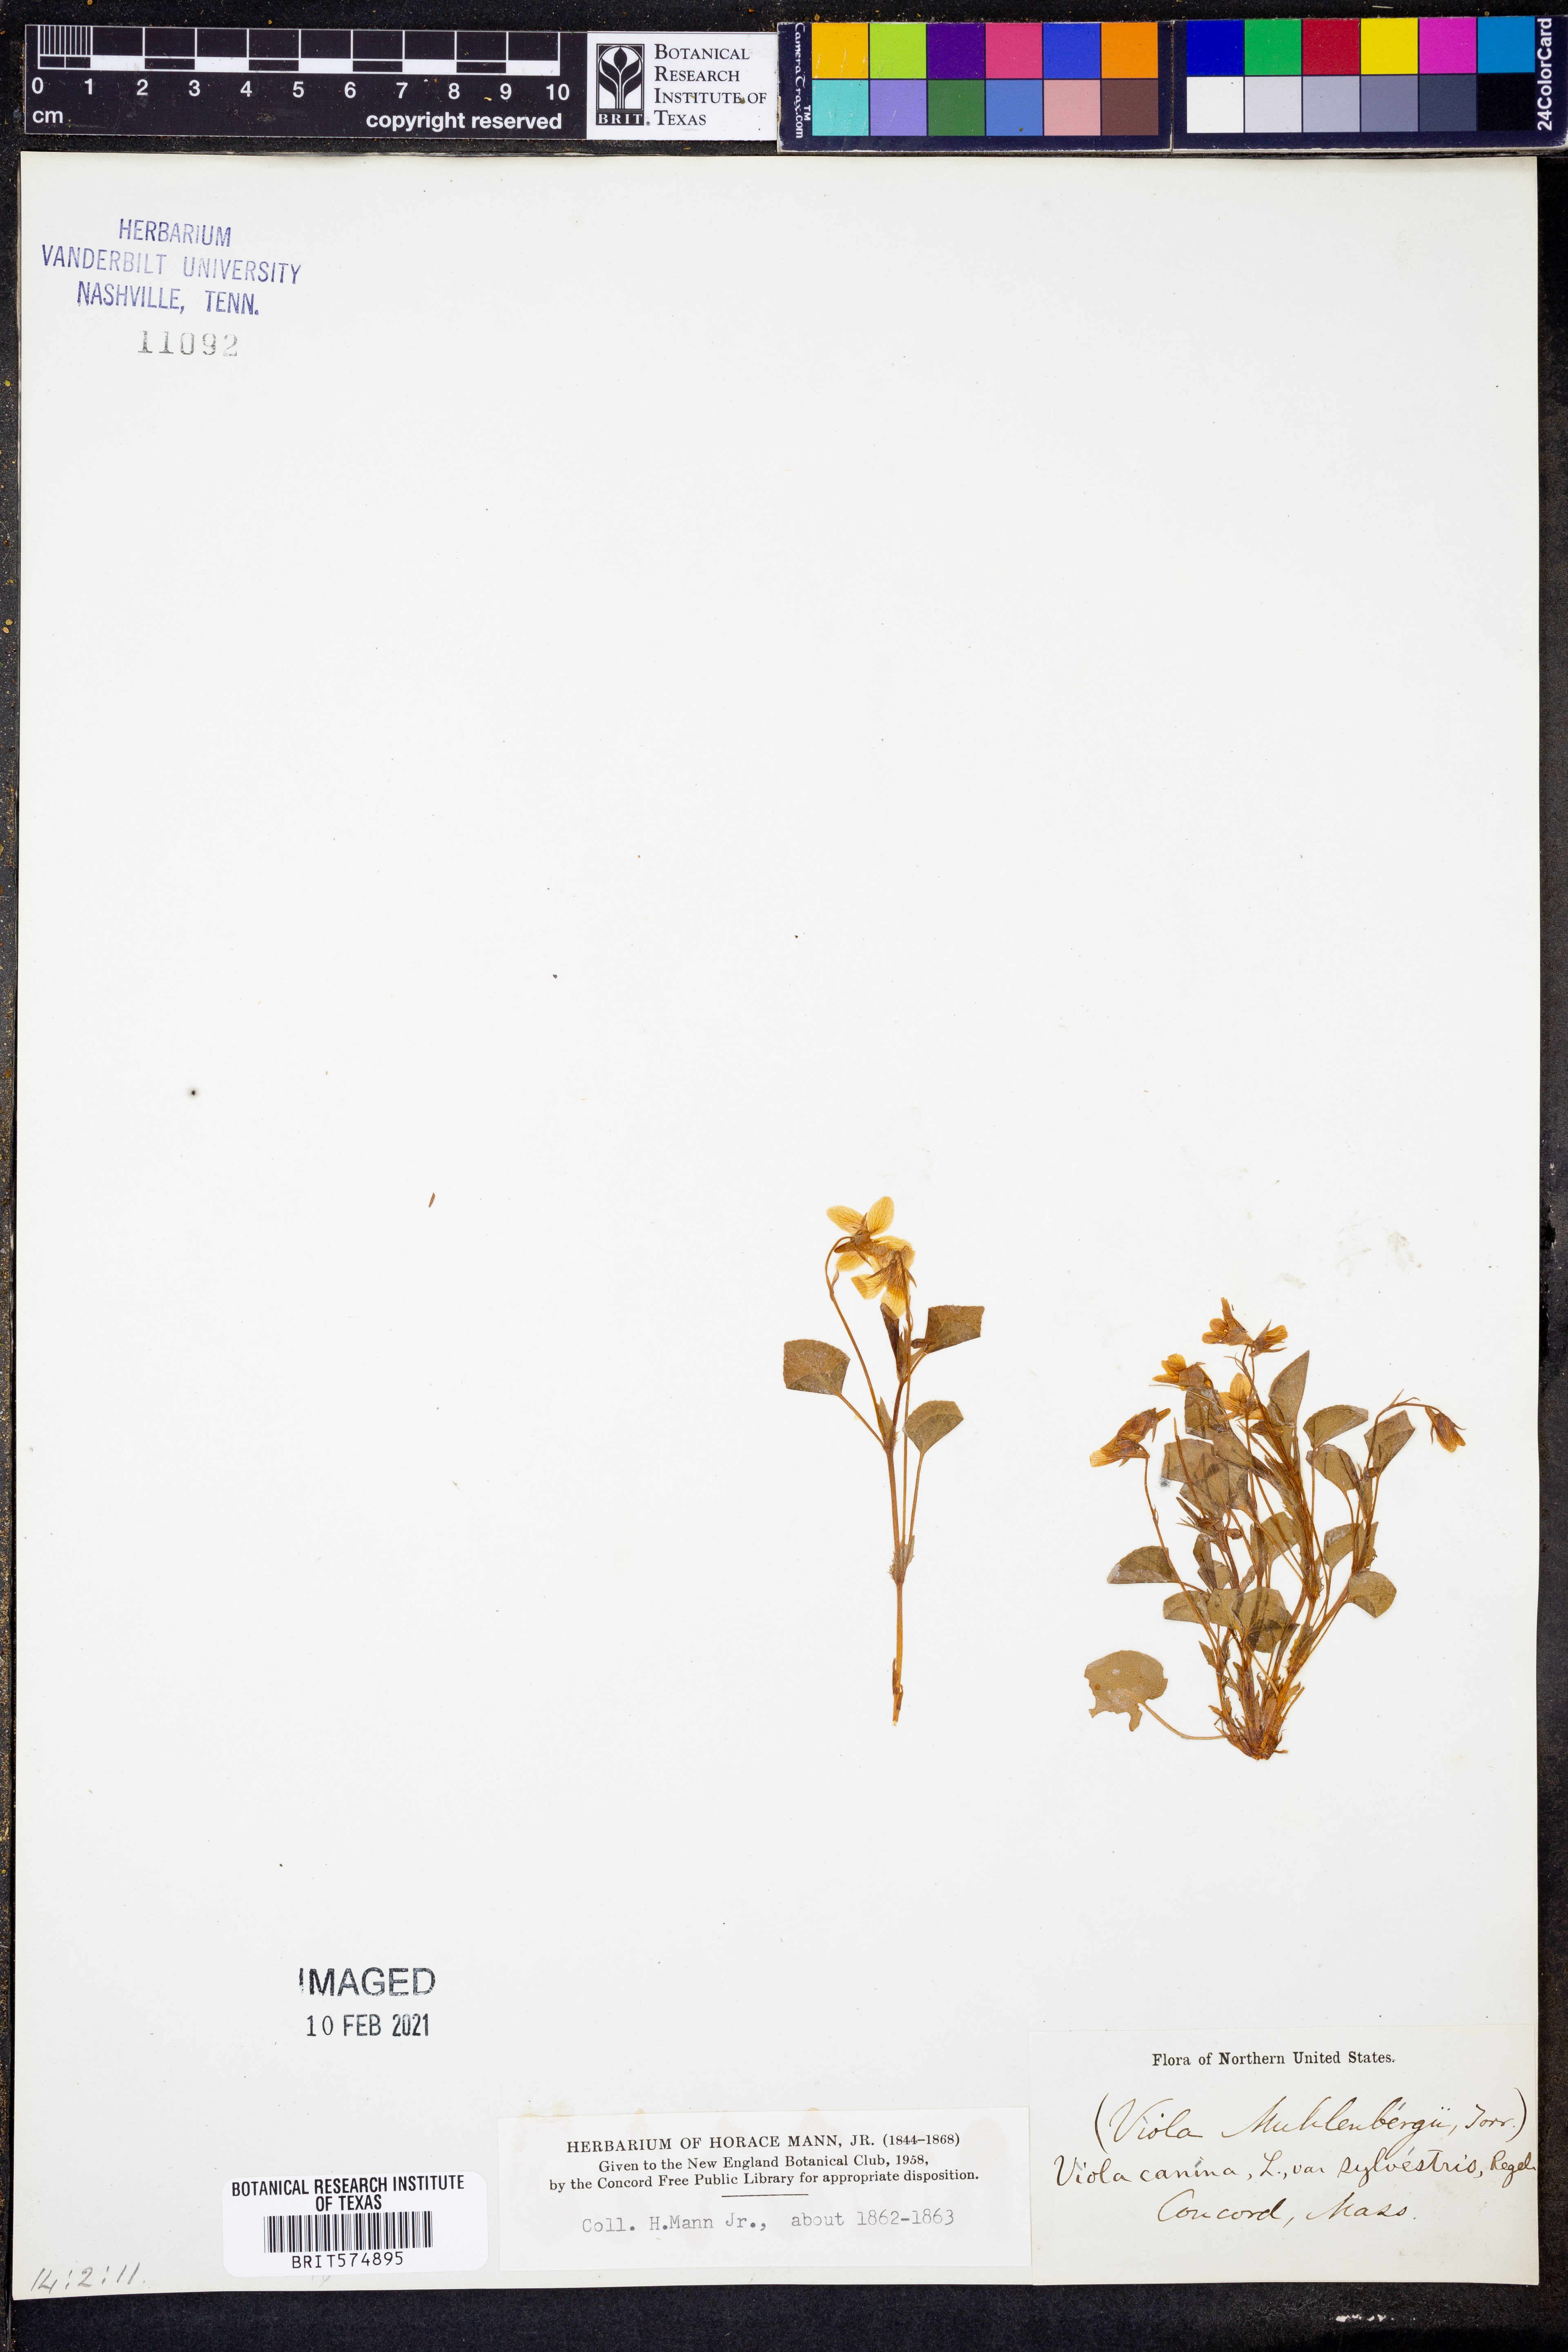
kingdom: Plantae
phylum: Tracheophyta
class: Magnoliopsida
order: Malpighiales
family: Violaceae
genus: Viola
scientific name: Viola labradorica
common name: Labrador violet
